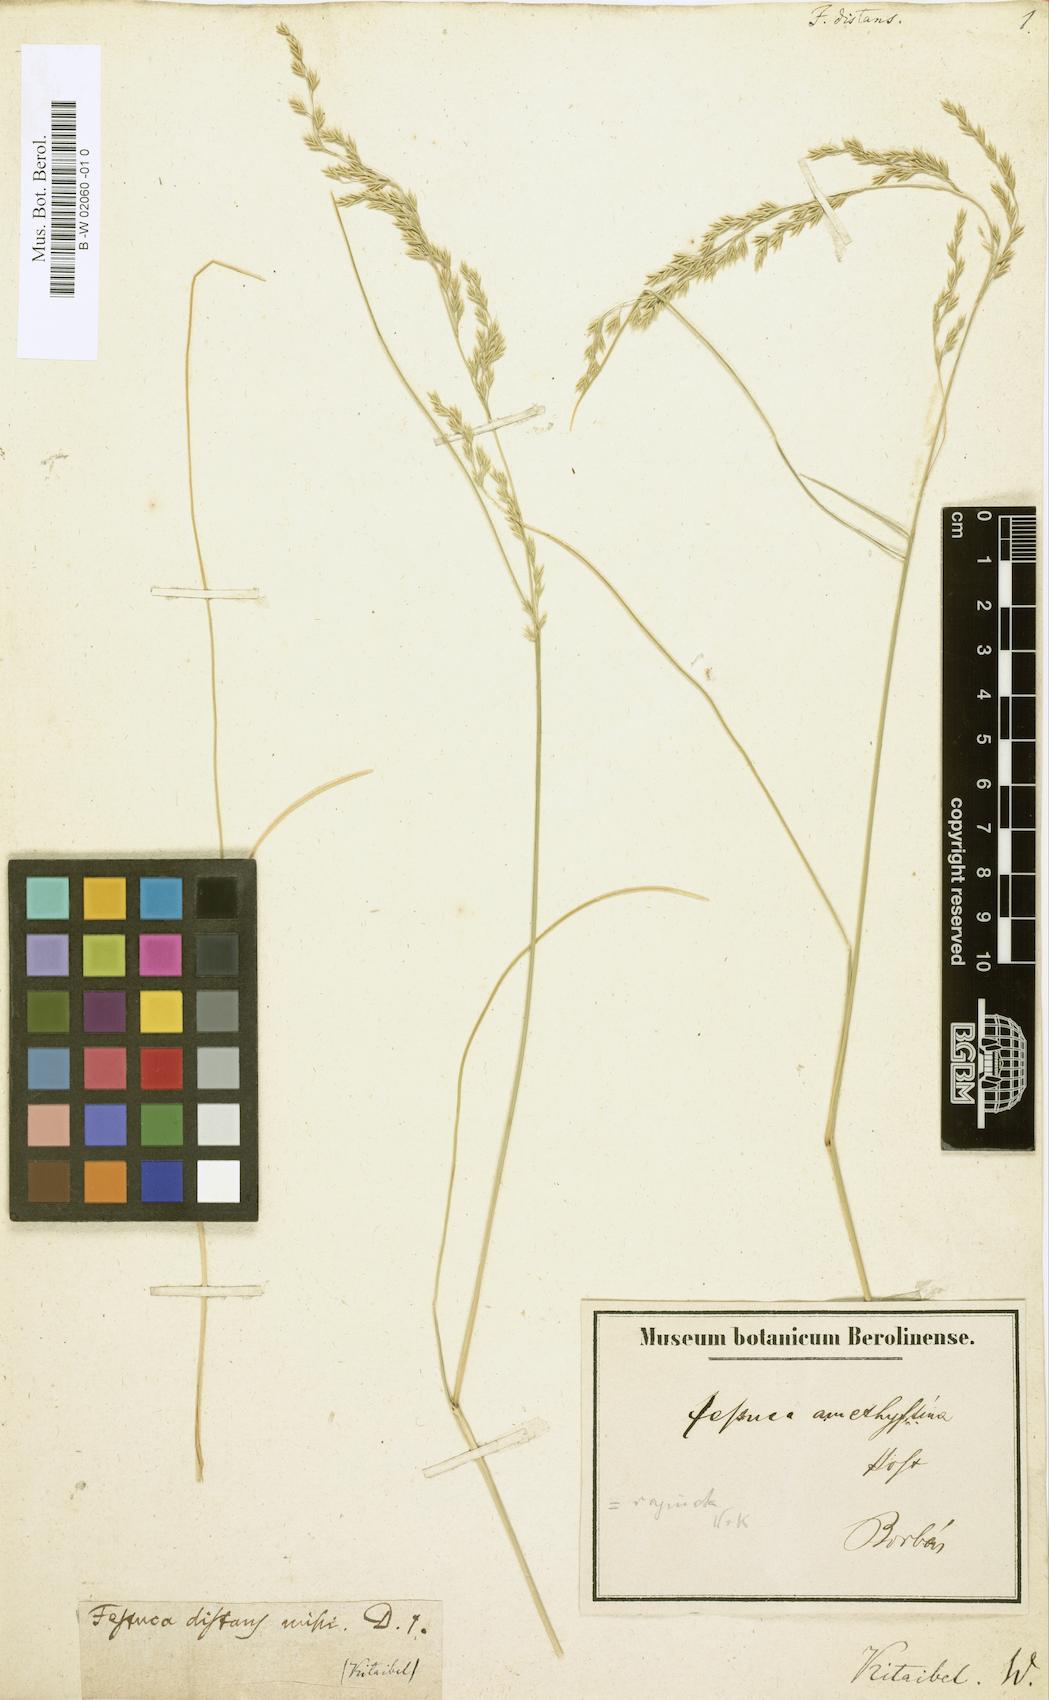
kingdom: Plantae
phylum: Tracheophyta
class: Liliopsida
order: Poales
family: Poaceae
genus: Puccinellia
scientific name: Puccinellia distans
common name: Weeping alkaligrass
